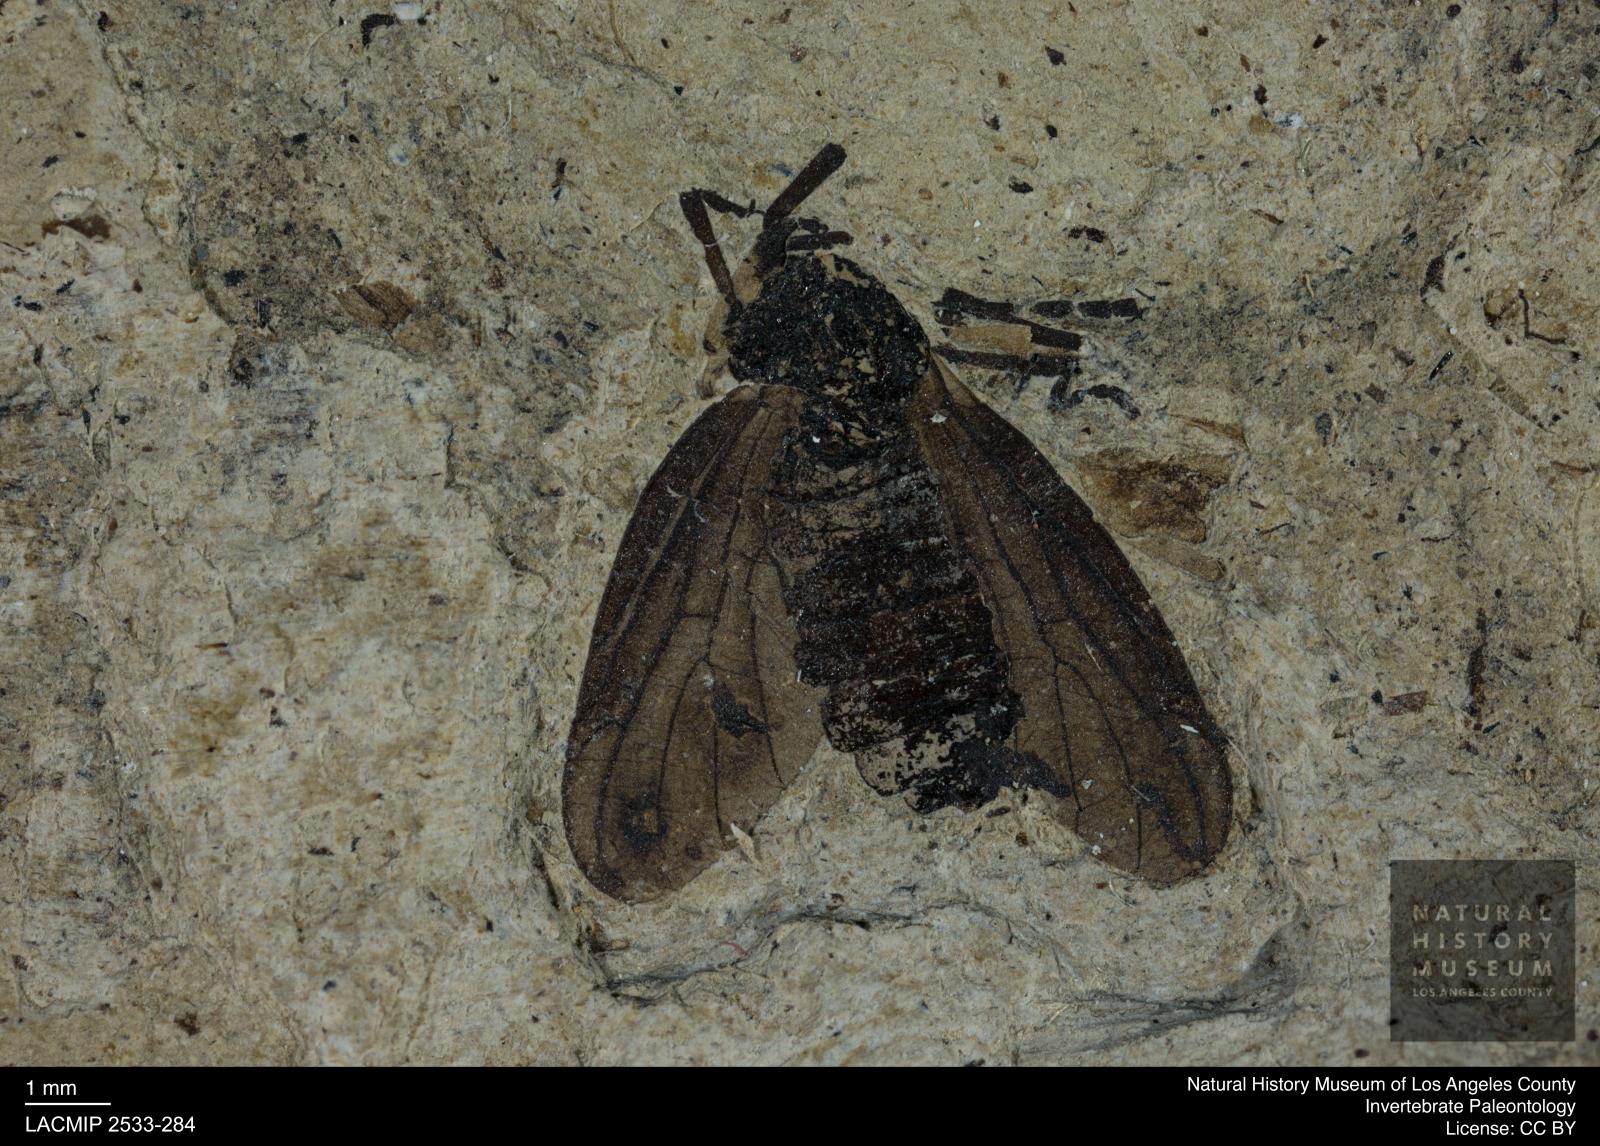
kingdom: Animalia
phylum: Arthropoda
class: Insecta
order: Diptera
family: Bibionidae
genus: Plecia
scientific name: Plecia pinguis
